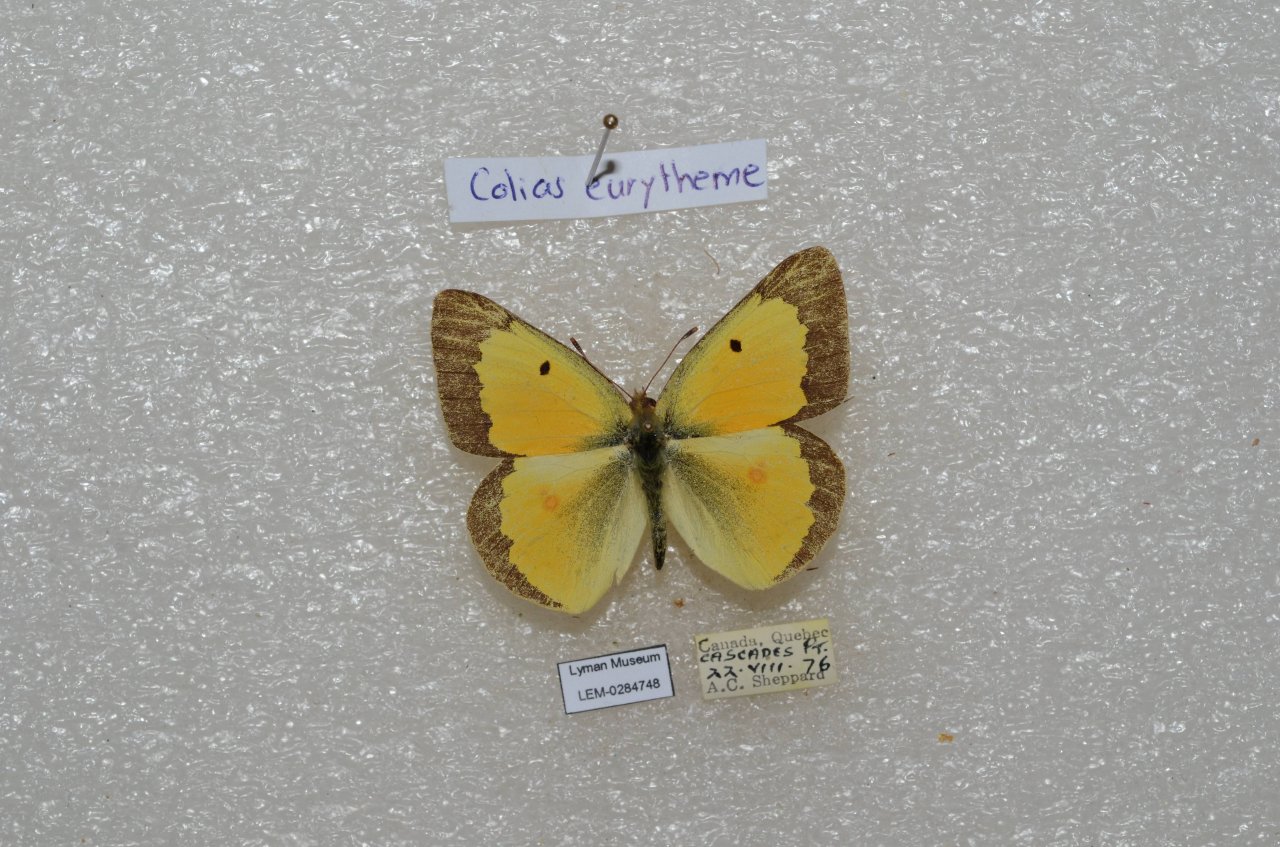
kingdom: Animalia
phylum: Arthropoda
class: Insecta
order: Lepidoptera
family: Pieridae
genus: Colias
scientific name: Colias eurytheme
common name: Orange Sulphur
